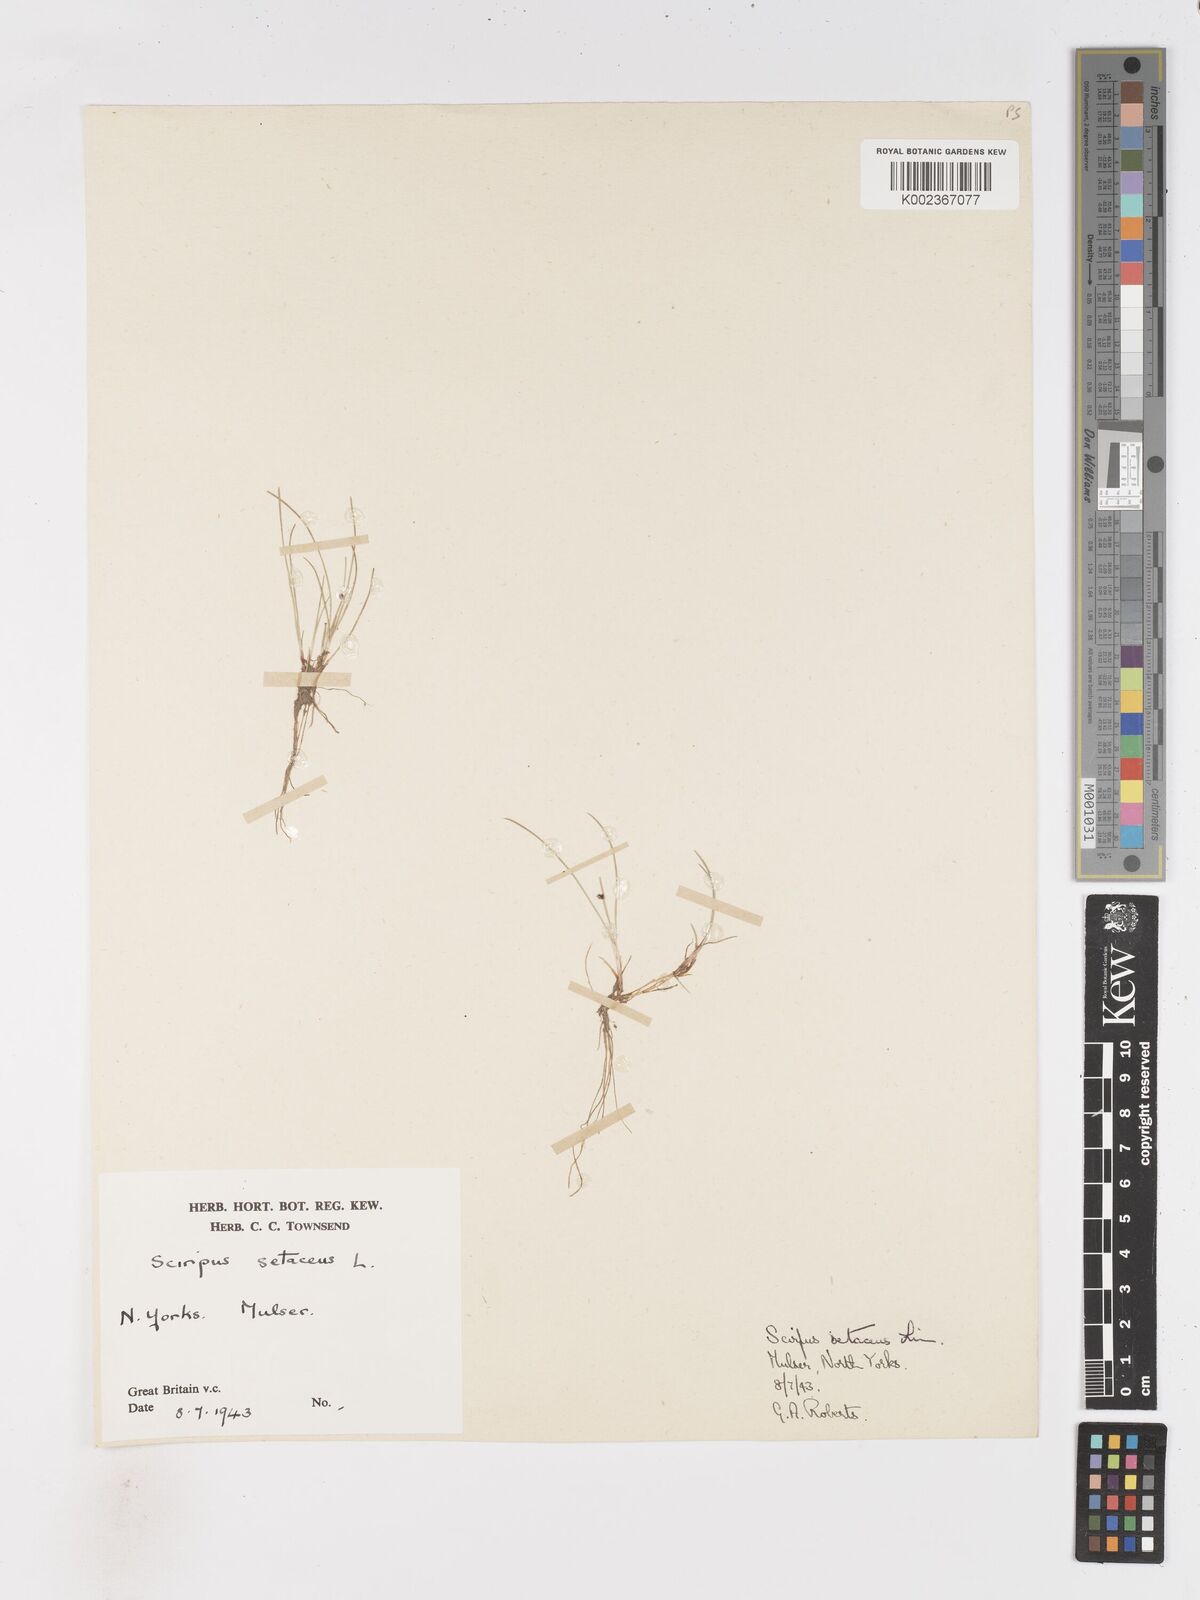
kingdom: Plantae
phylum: Tracheophyta
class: Liliopsida
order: Poales
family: Cyperaceae
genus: Isolepis
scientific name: Isolepis setacea
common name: Bristle club-rush
